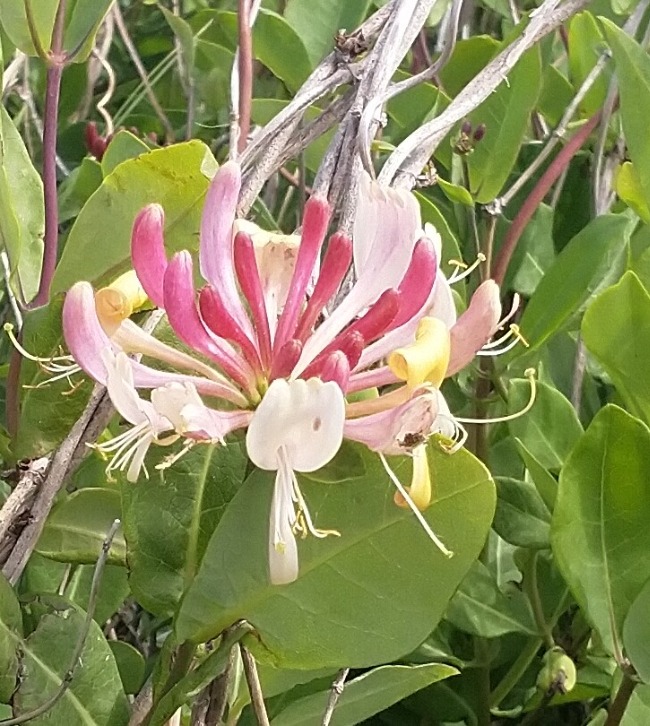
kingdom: Plantae
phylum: Tracheophyta
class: Magnoliopsida
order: Dipsacales
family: Caprifoliaceae
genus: Lonicera
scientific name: Lonicera periclymenum
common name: Almindelig gedeblad
